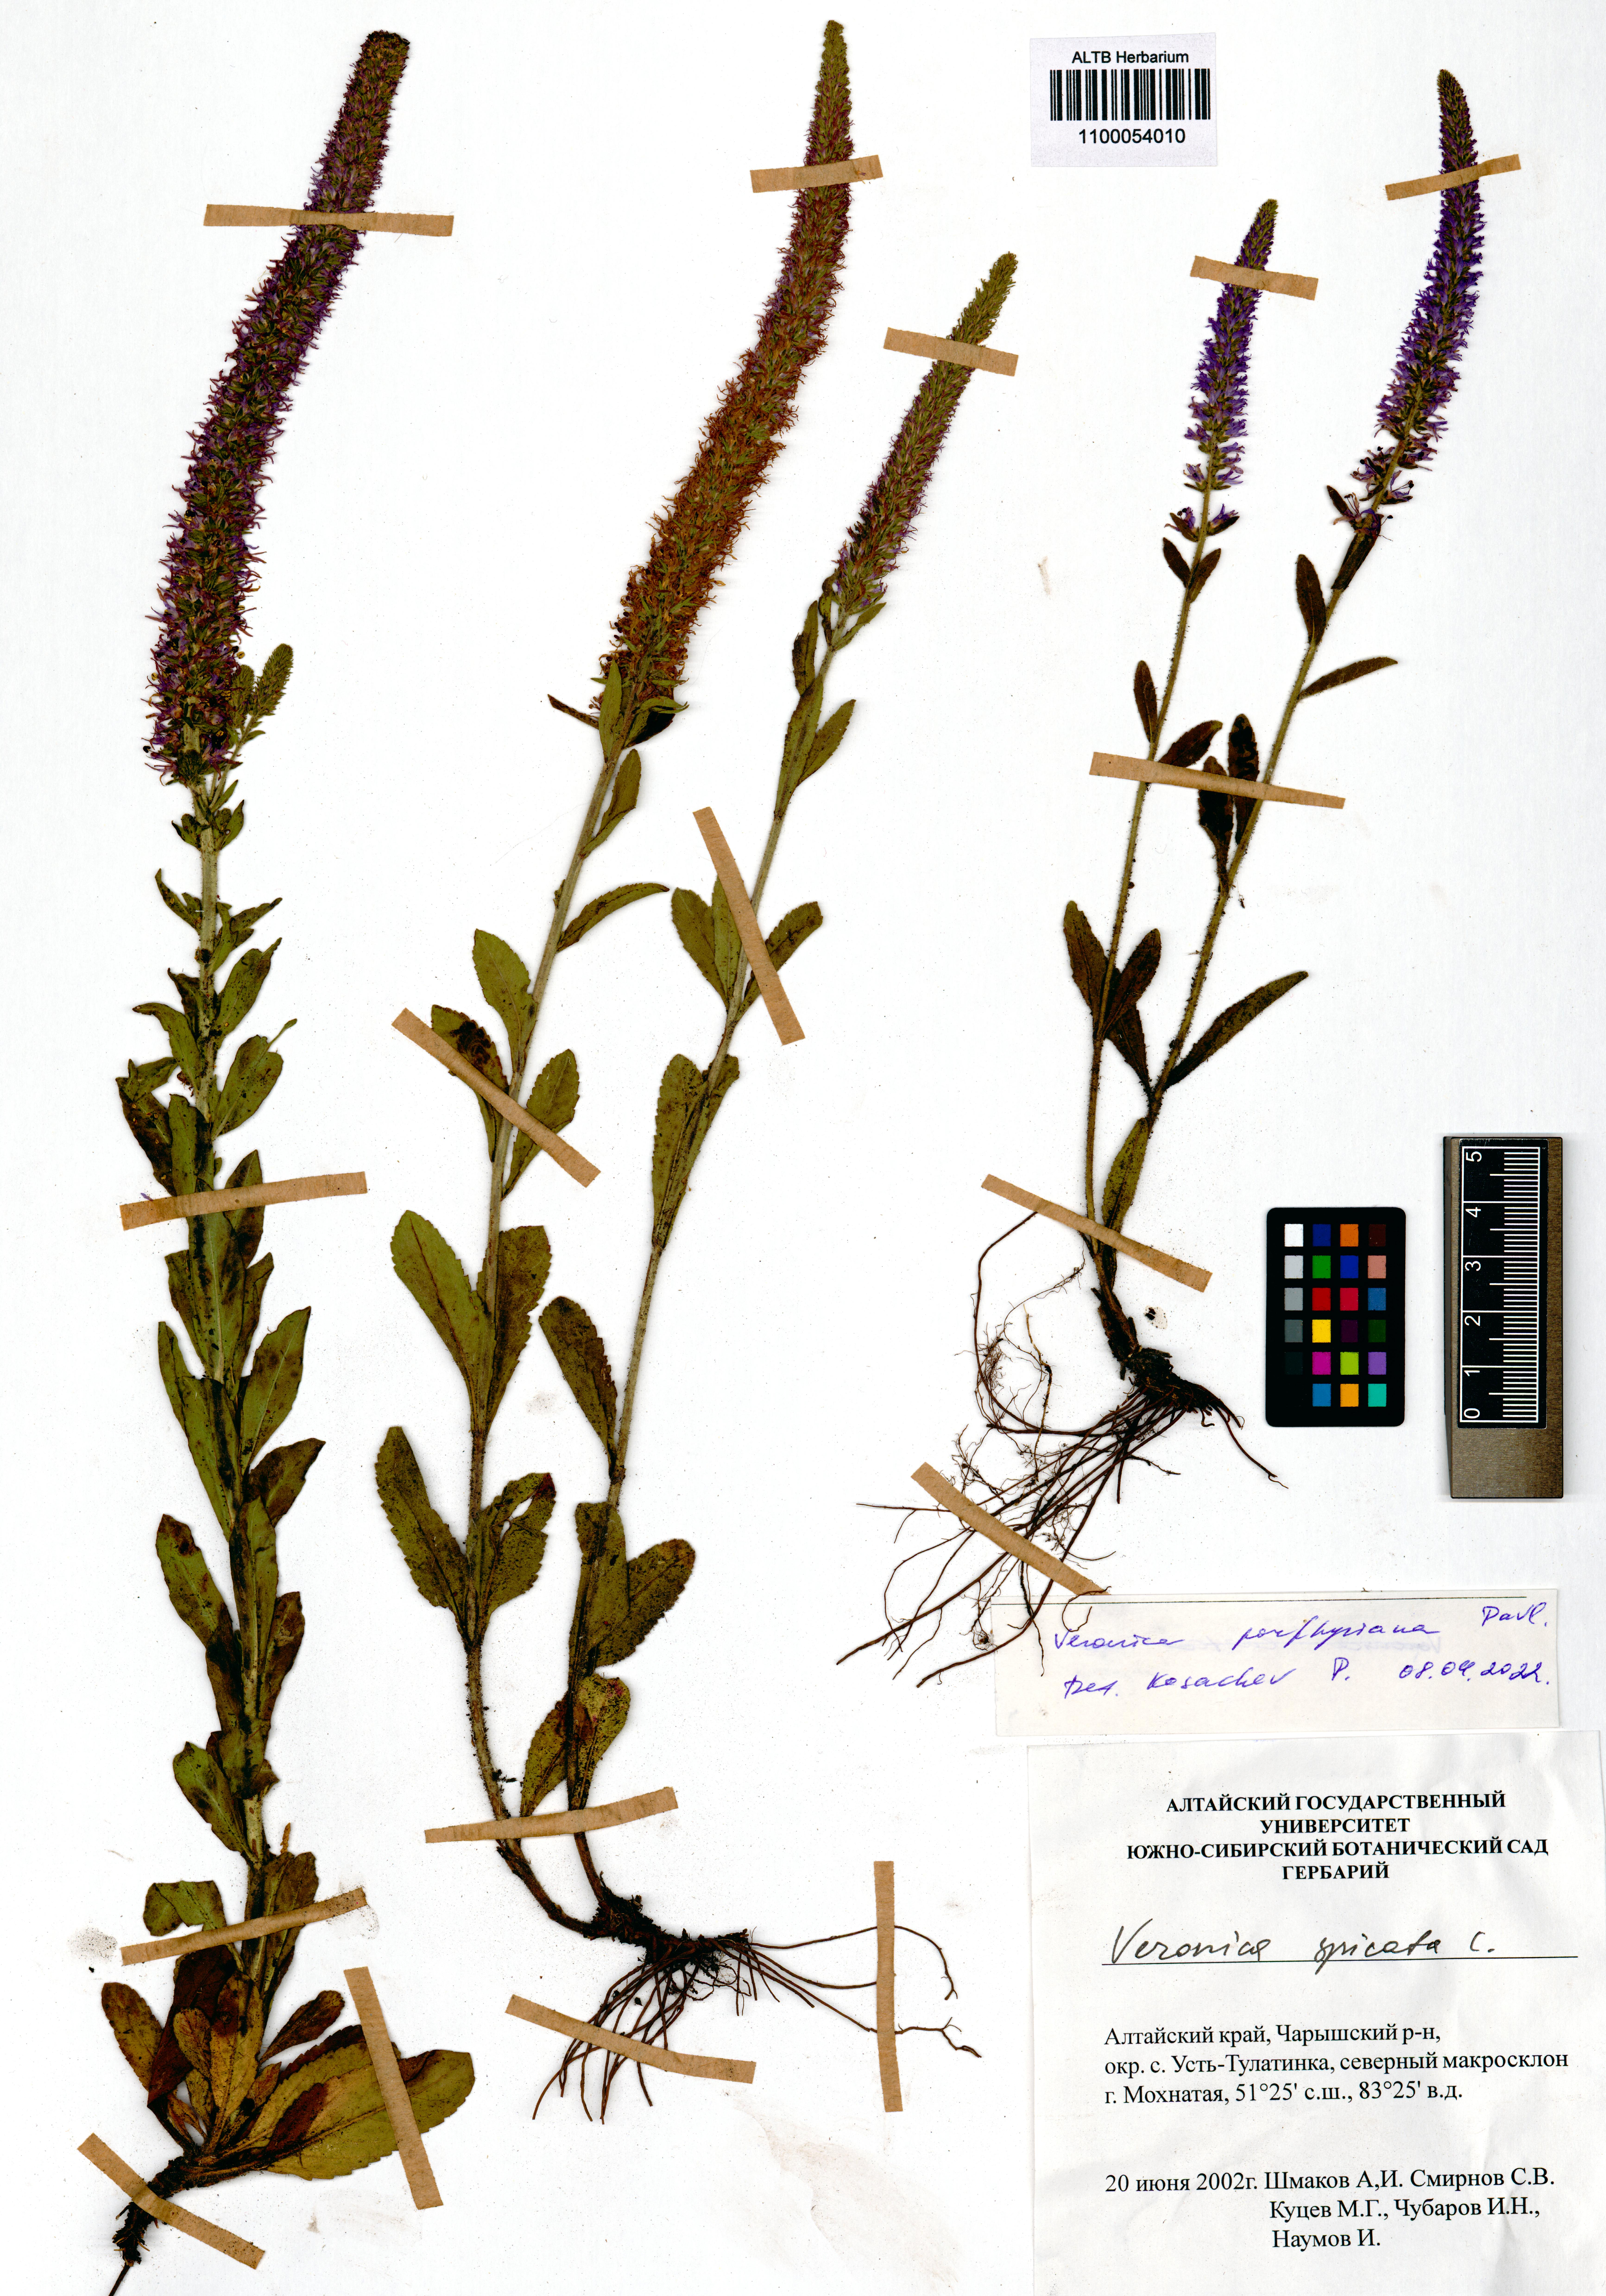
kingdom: Plantae
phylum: Tracheophyta
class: Magnoliopsida
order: Lamiales
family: Plantaginaceae
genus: Veronica
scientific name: Veronica porphyriana
